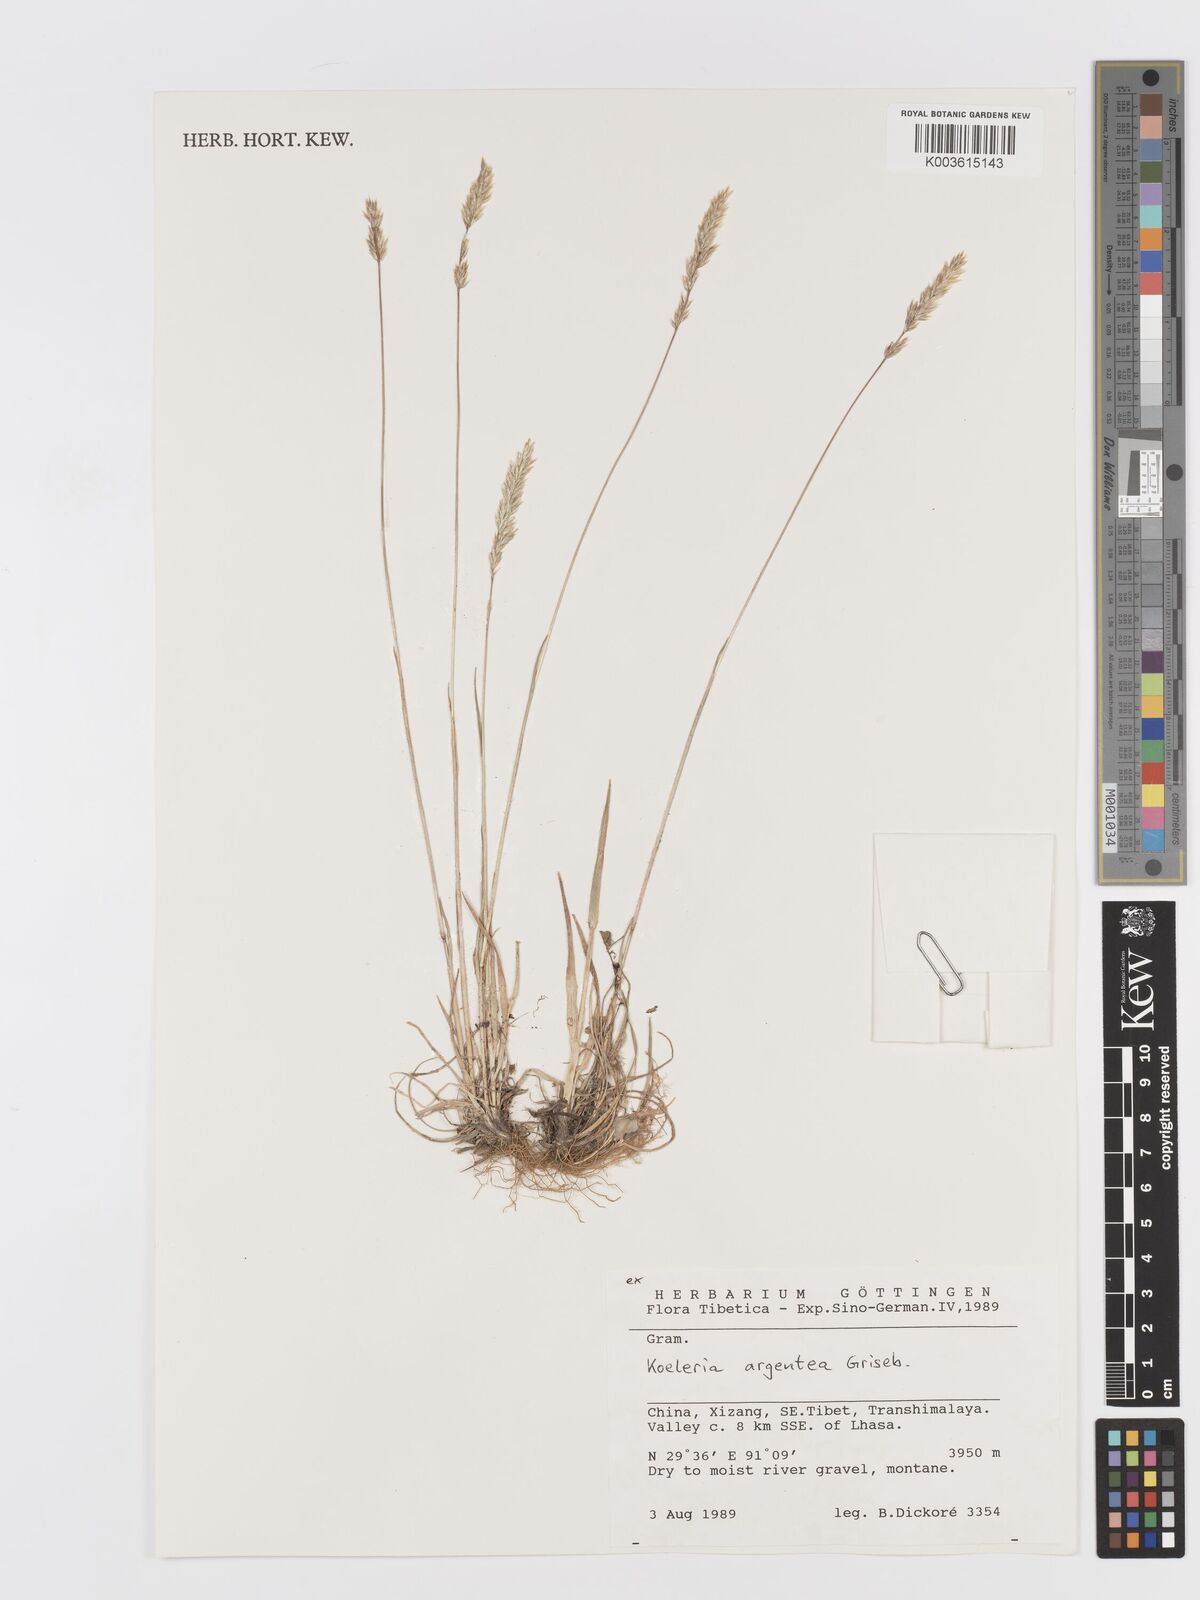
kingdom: Plantae
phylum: Tracheophyta
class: Liliopsida
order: Poales
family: Poaceae
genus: Koeleria
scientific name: Koeleria argentea
